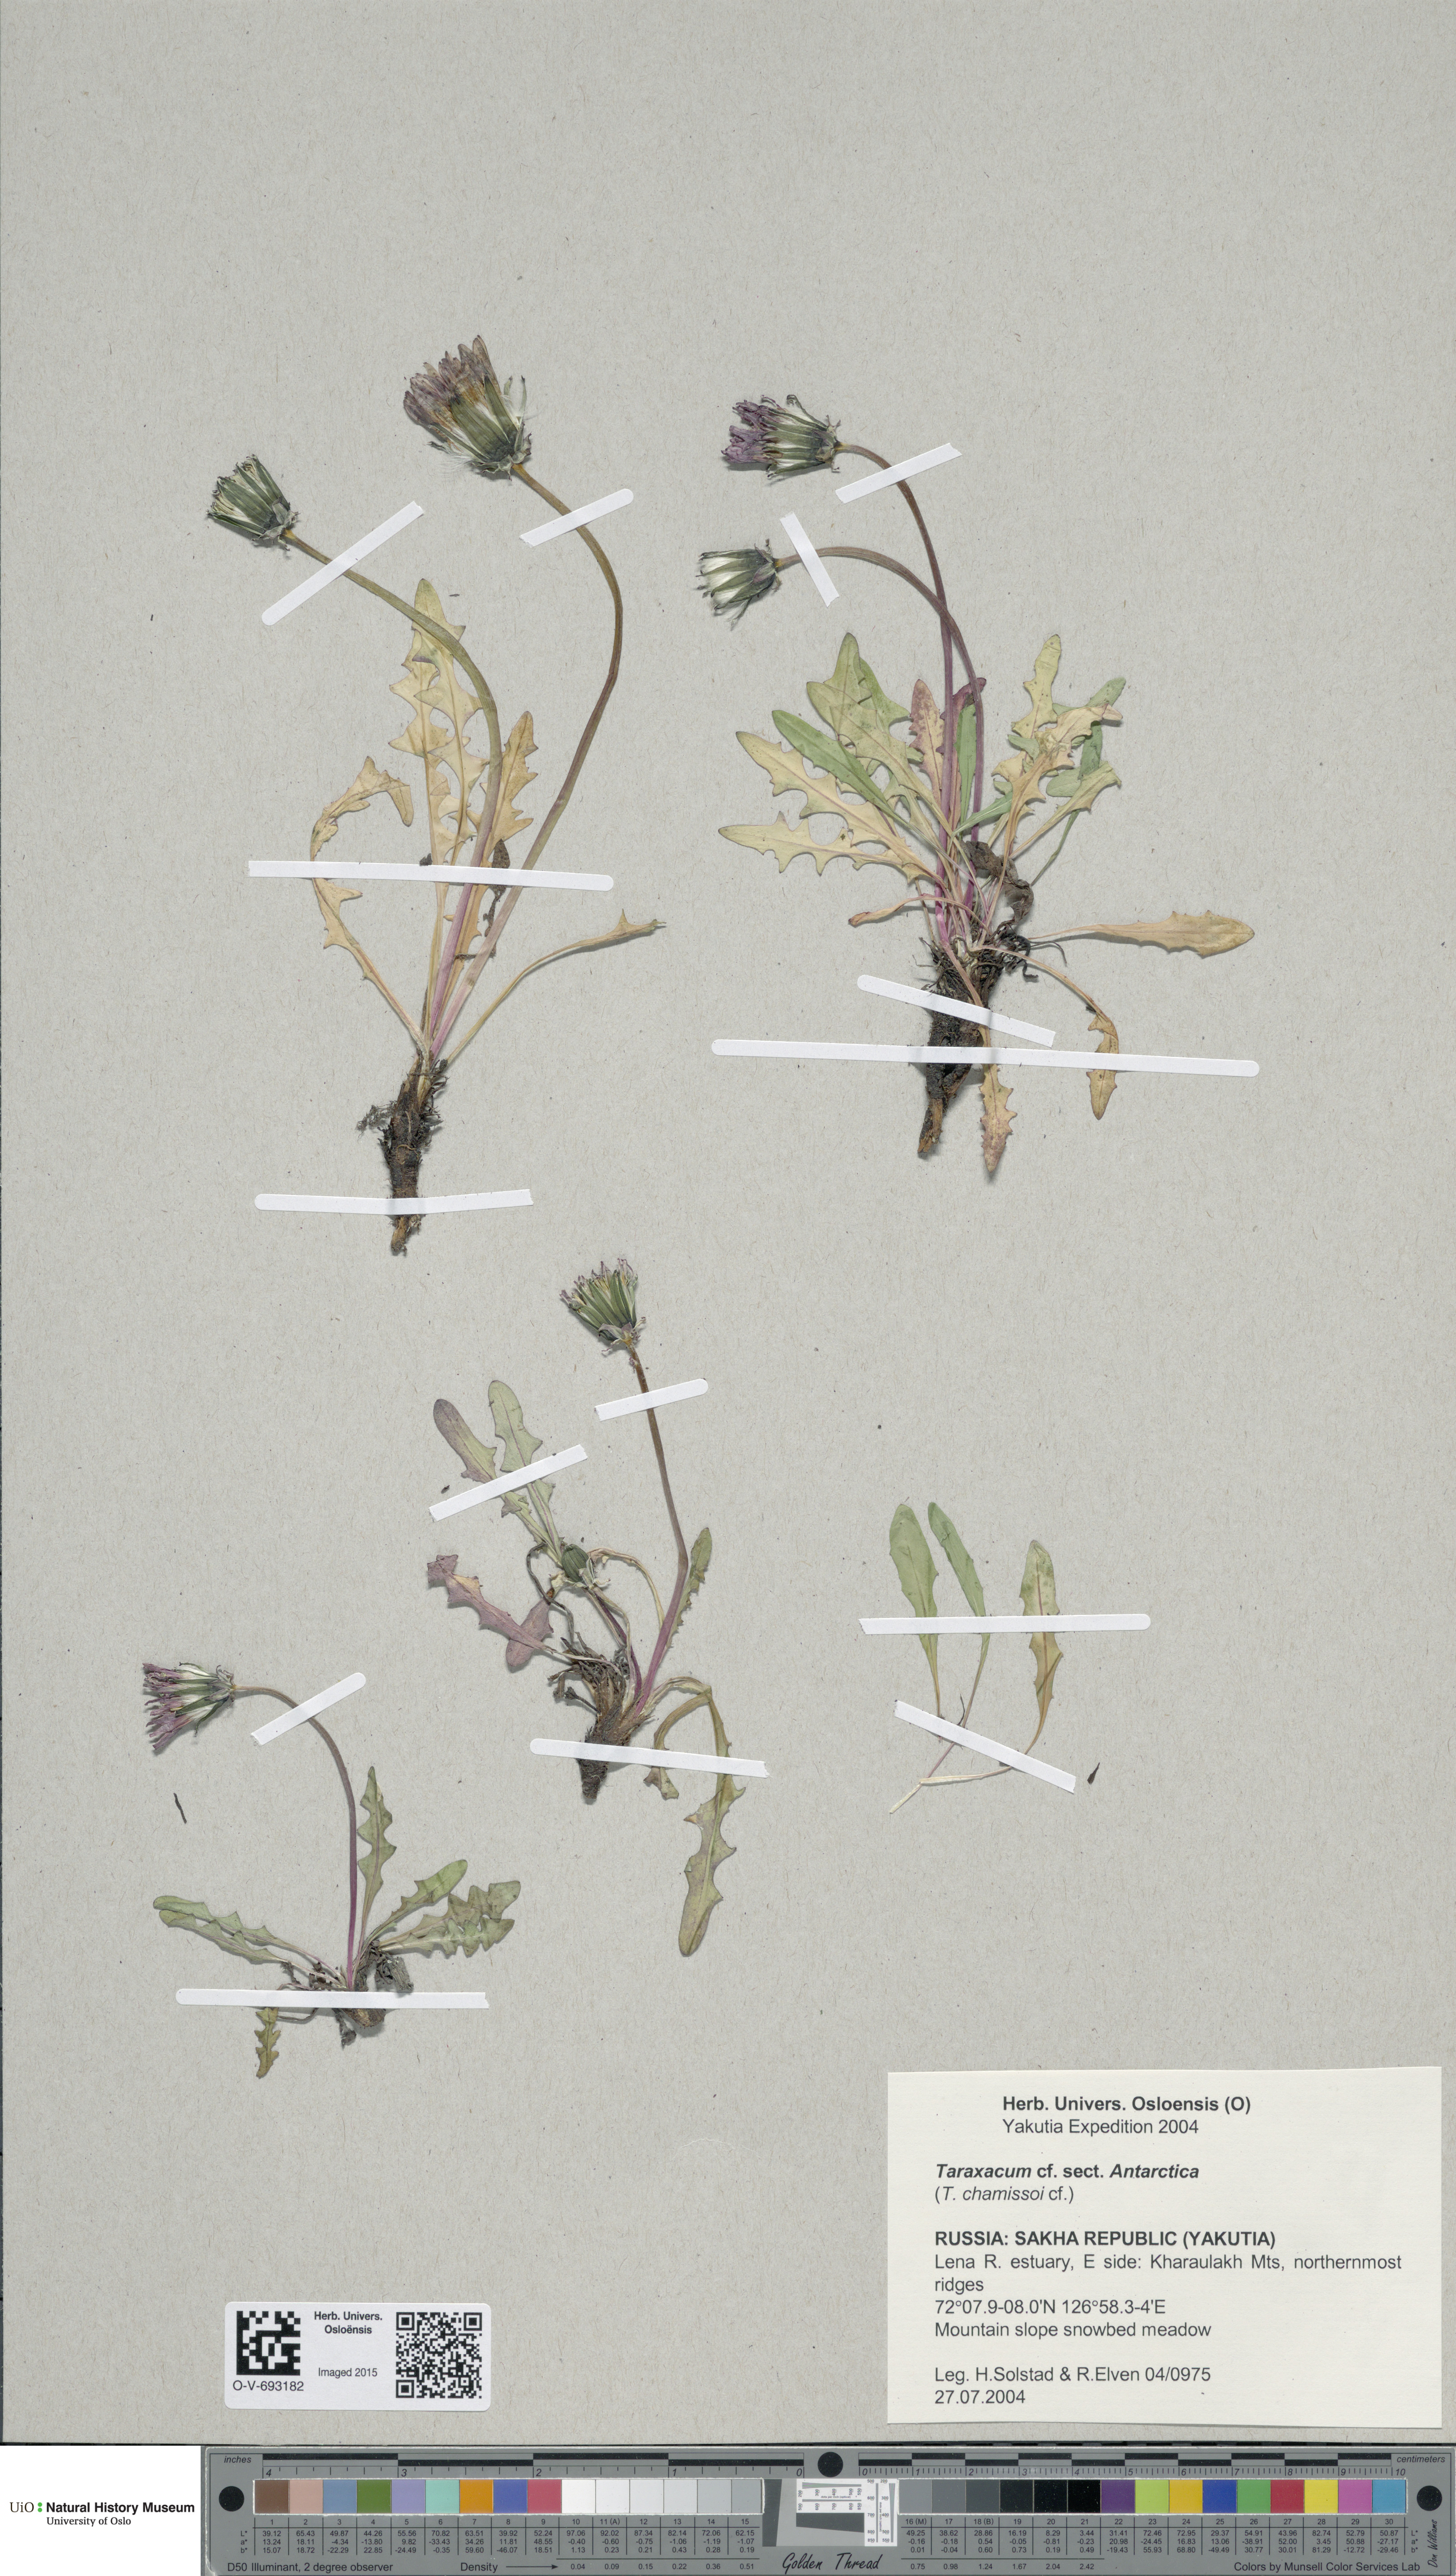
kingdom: Plantae
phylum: Tracheophyta
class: Magnoliopsida
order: Asterales
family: Asteraceae
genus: Taraxacum
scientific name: Taraxacum
